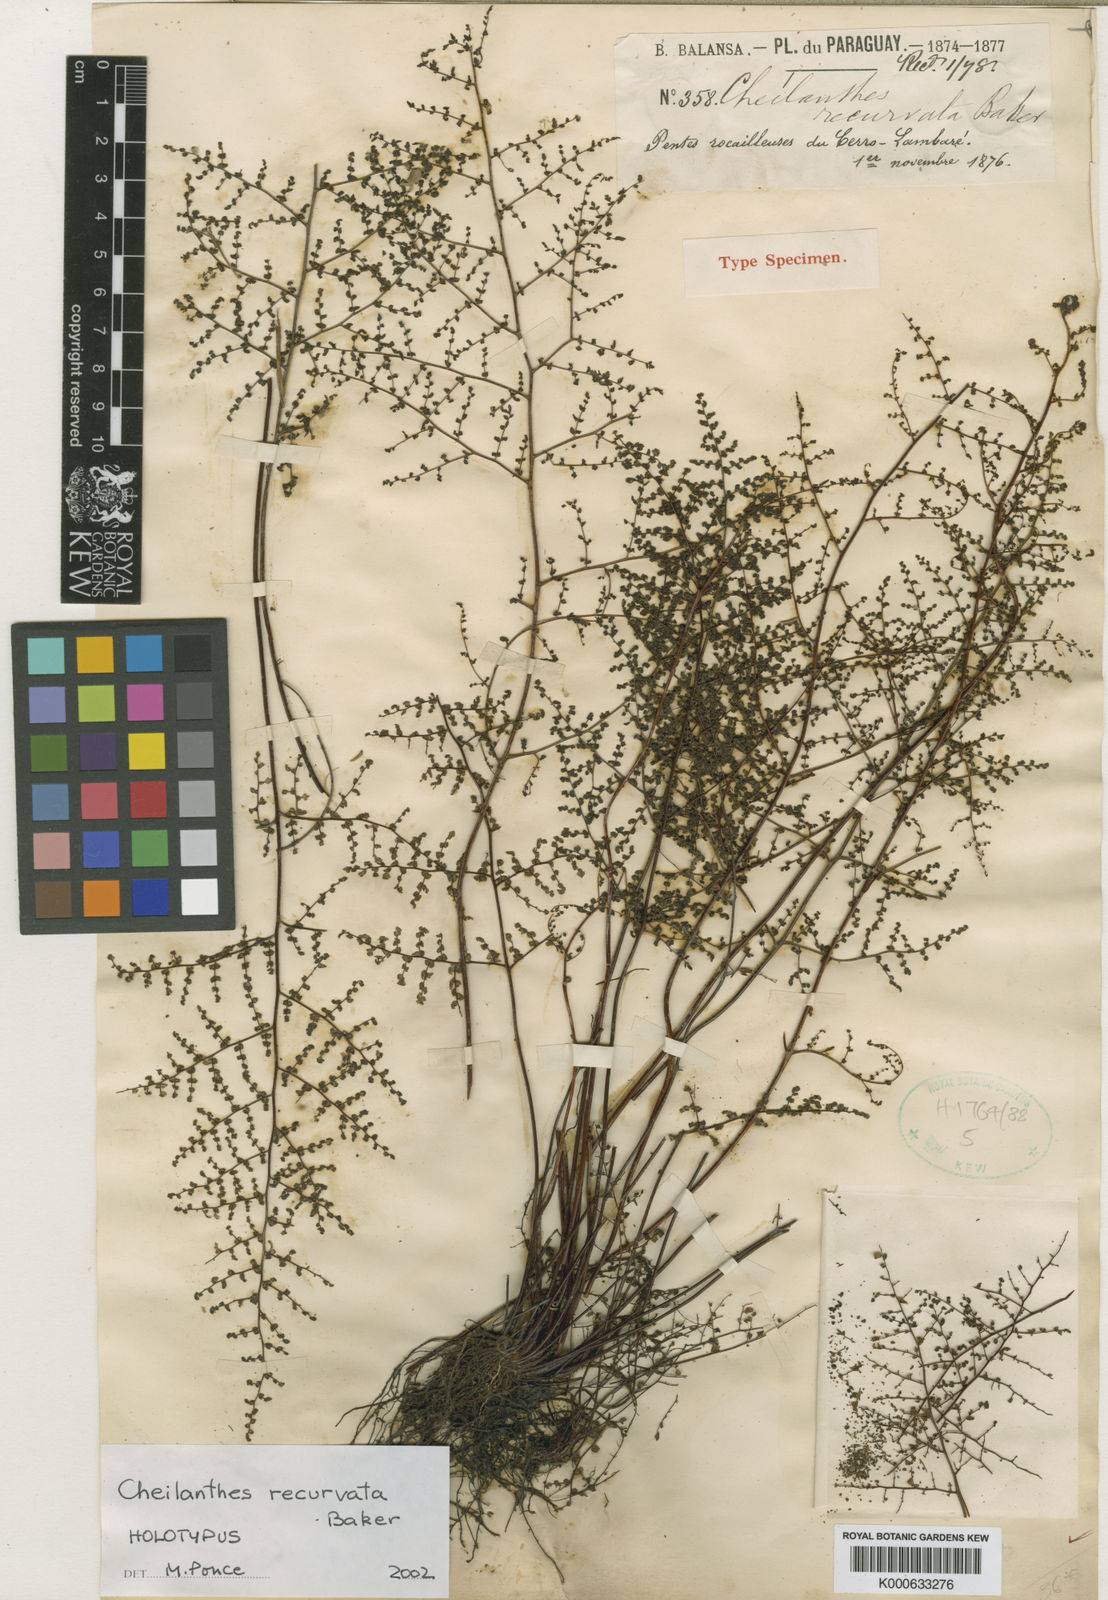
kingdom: Plantae
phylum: Tracheophyta
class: Polypodiopsida
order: Polypodiales
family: Pteridaceae
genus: Adiantopsis
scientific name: Adiantopsis recurvata
